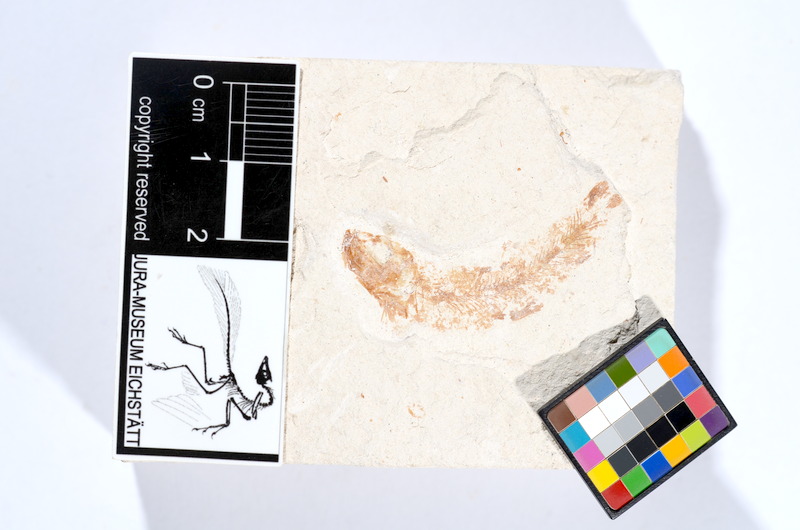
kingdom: Animalia
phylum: Chordata
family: Ascalaboidae
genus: Tharsis
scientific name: Tharsis dubius
